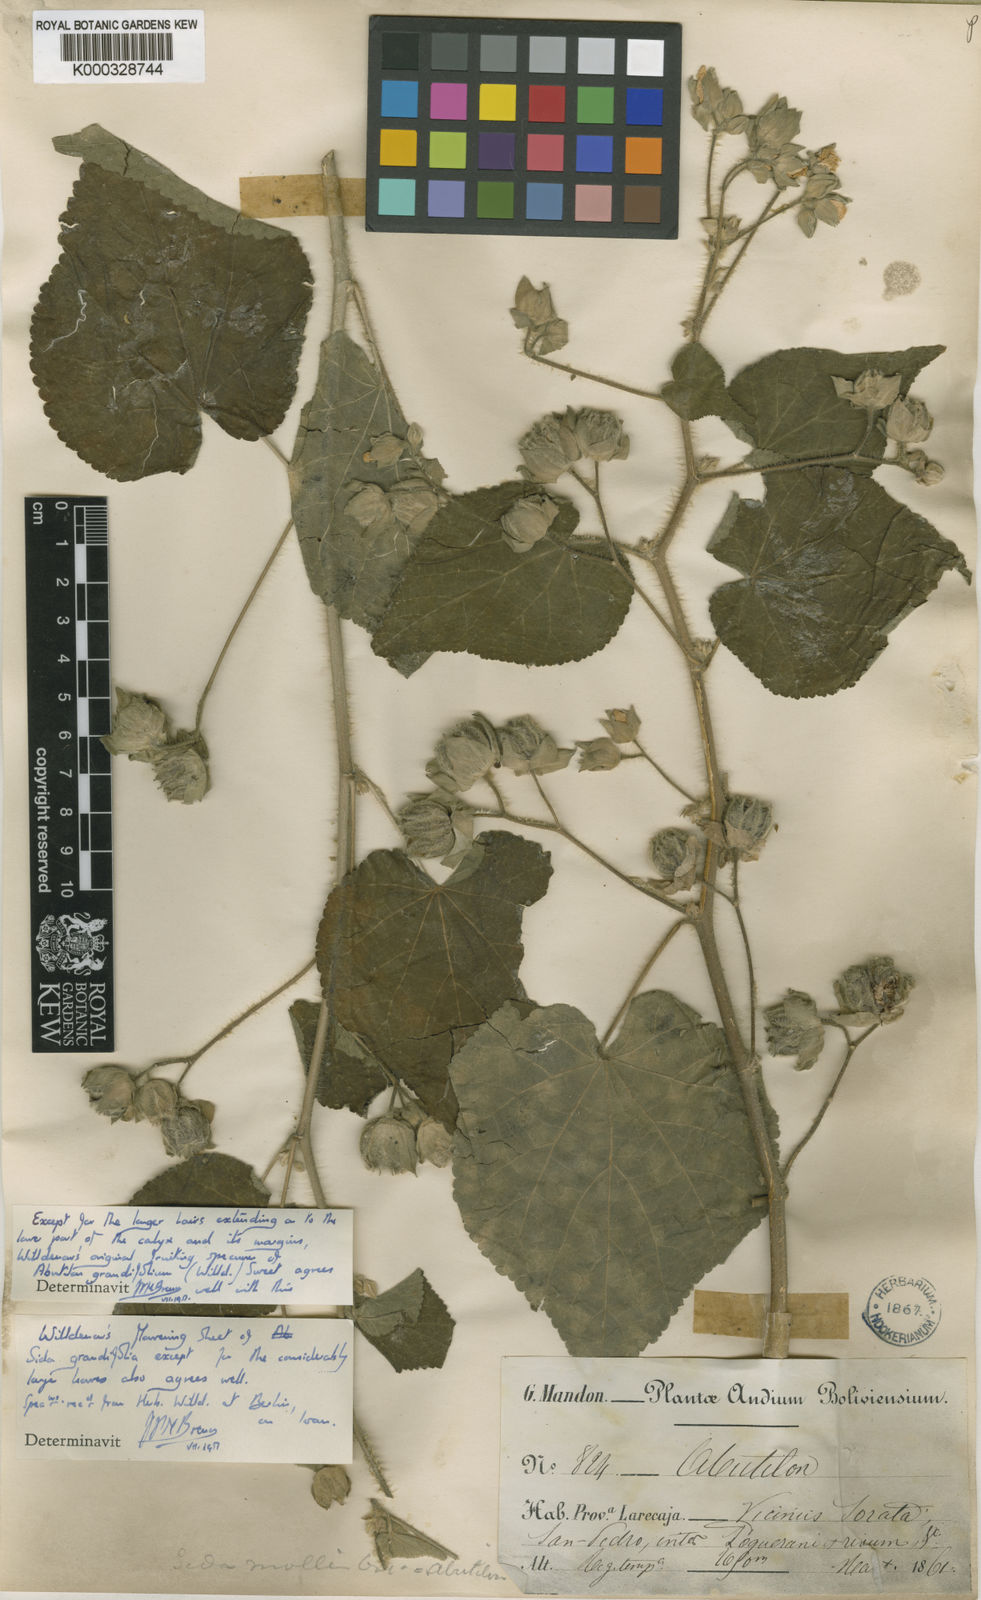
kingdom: Plantae
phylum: Tracheophyta
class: Magnoliopsida
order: Malvales
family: Malvaceae
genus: Abutilon
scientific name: Abutilon grandifolium
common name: Hairy abutilon
